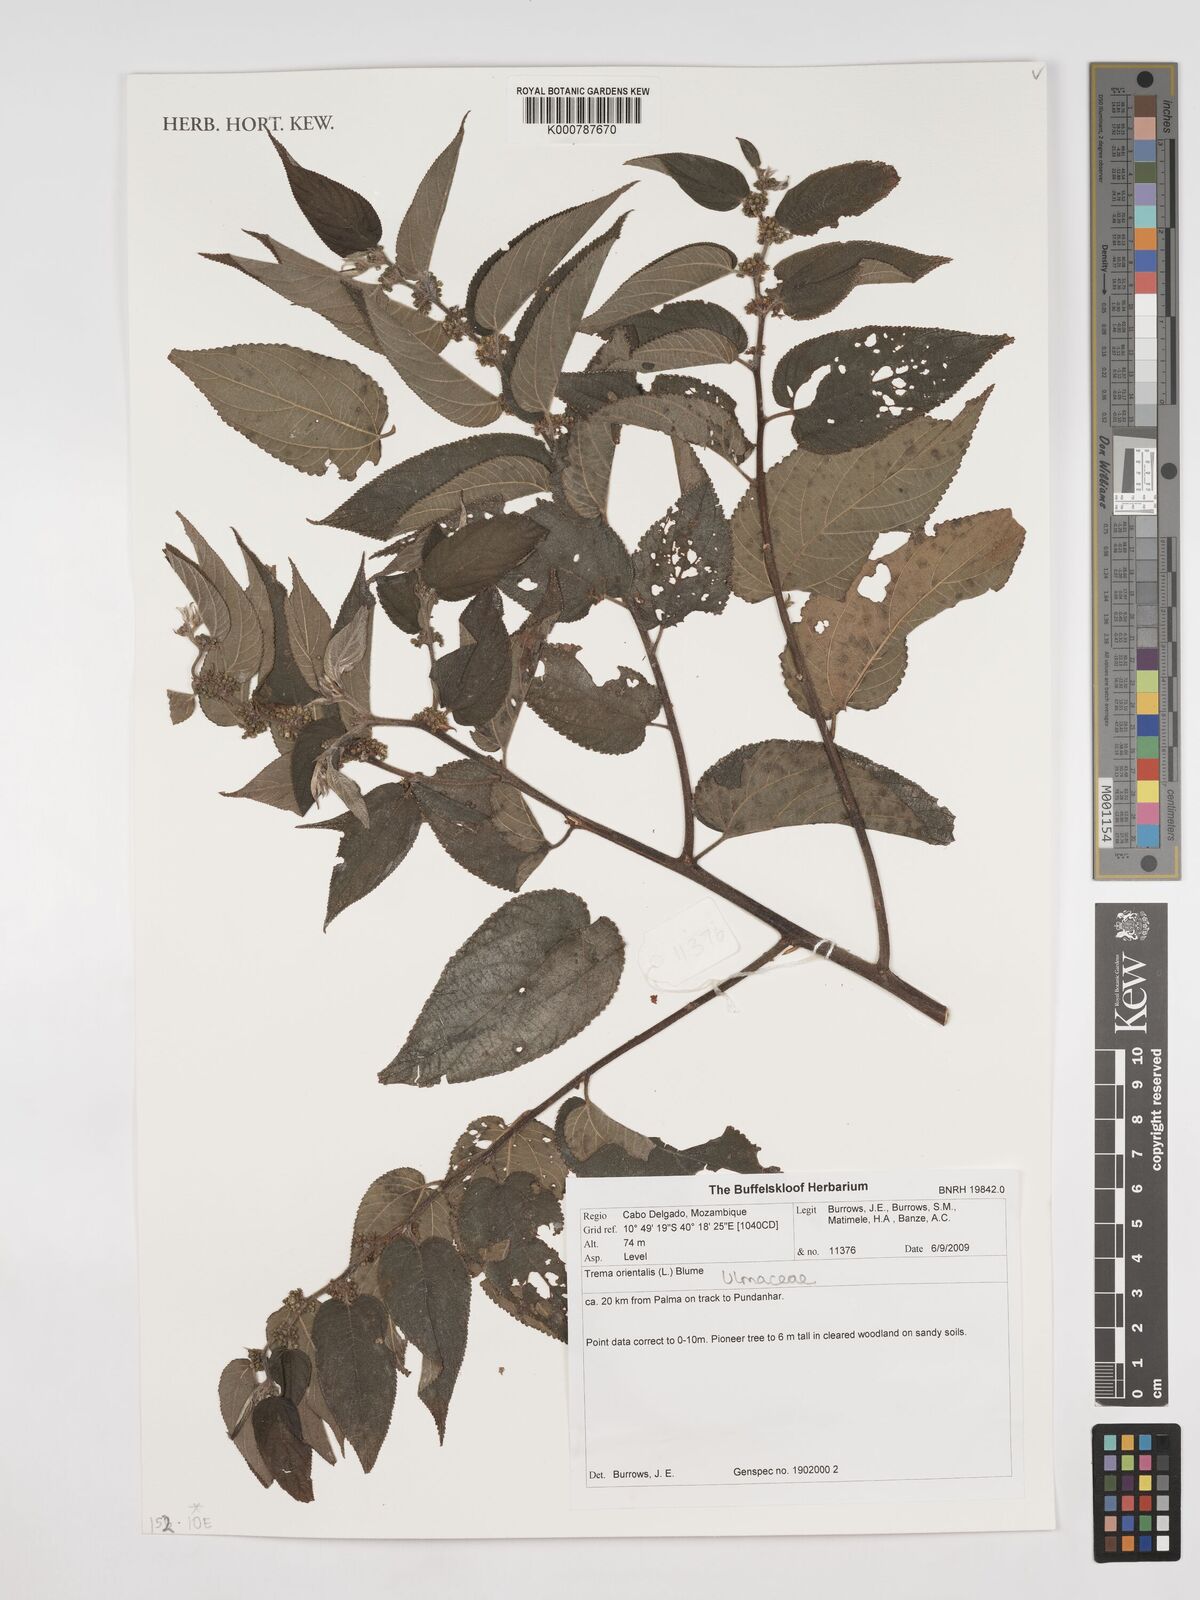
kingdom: Plantae
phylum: Tracheophyta
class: Magnoliopsida
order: Rosales
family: Cannabaceae
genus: Trema
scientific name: Trema orientale
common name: Indian charcoal tree
